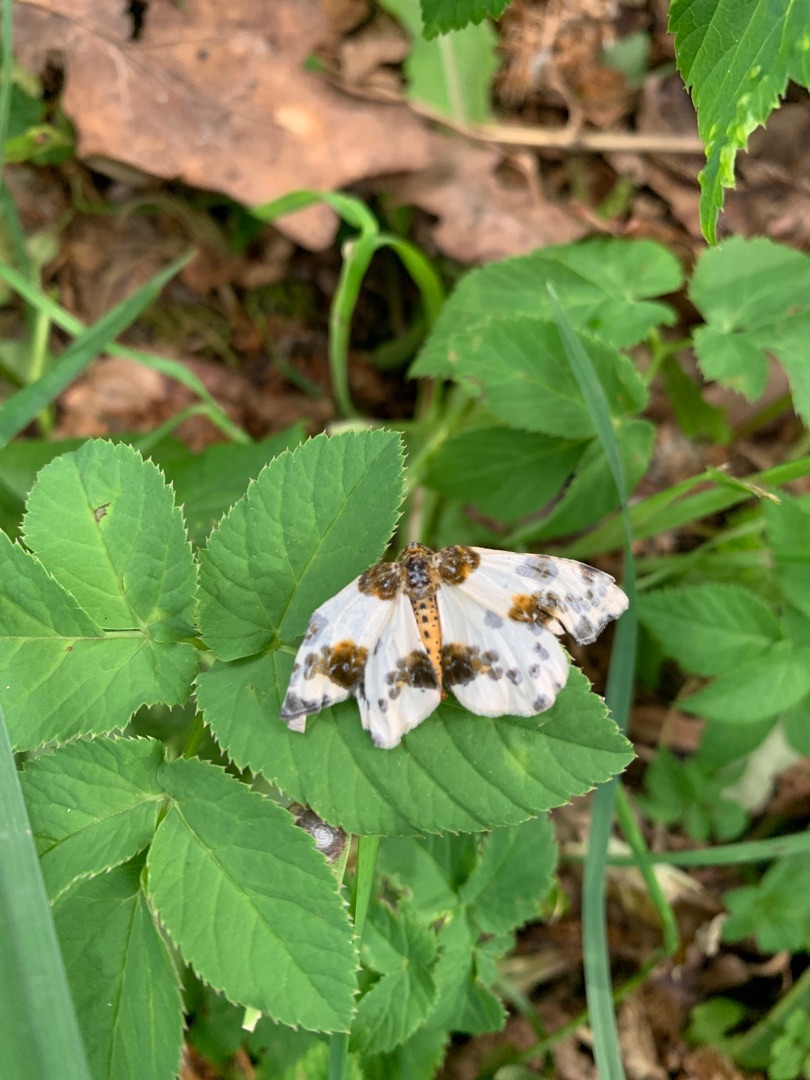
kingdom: Animalia
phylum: Arthropoda
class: Insecta
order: Lepidoptera
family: Geometridae
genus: Abraxas
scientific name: Abraxas sylvata
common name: Elmemåler
